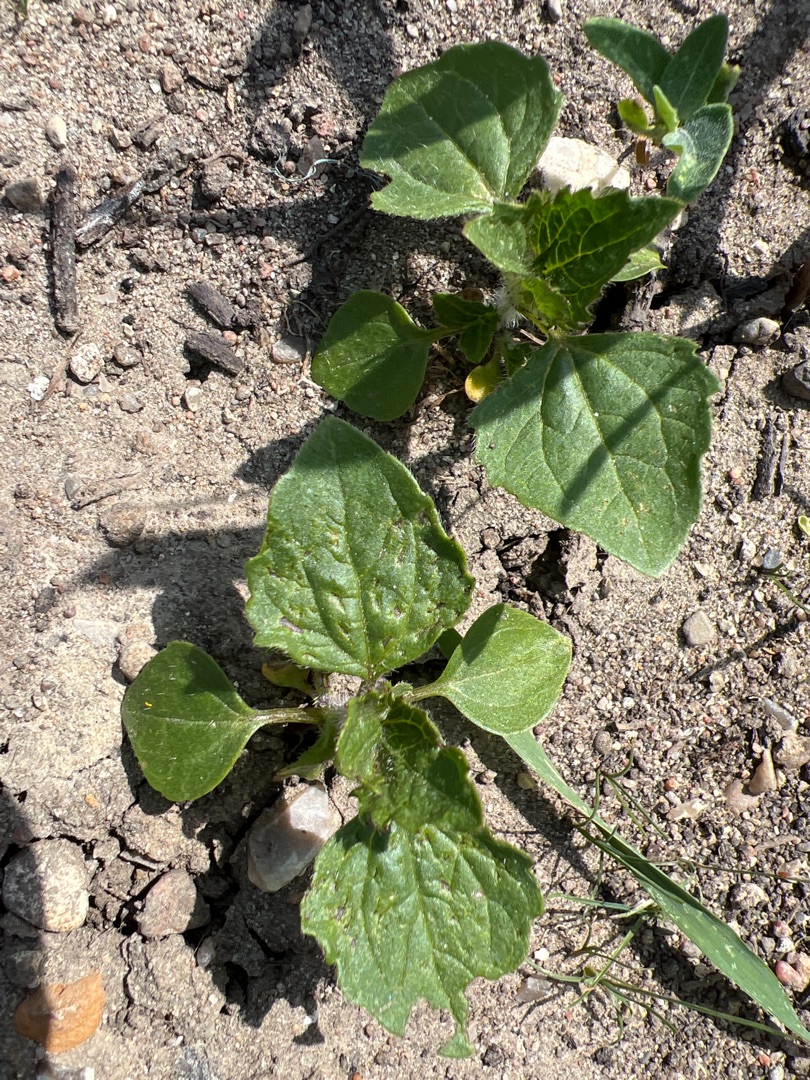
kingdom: Plantae
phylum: Tracheophyta
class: Magnoliopsida
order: Asterales
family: Asteraceae
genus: Galinsoga
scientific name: Galinsoga
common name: Kortstråleslægten
